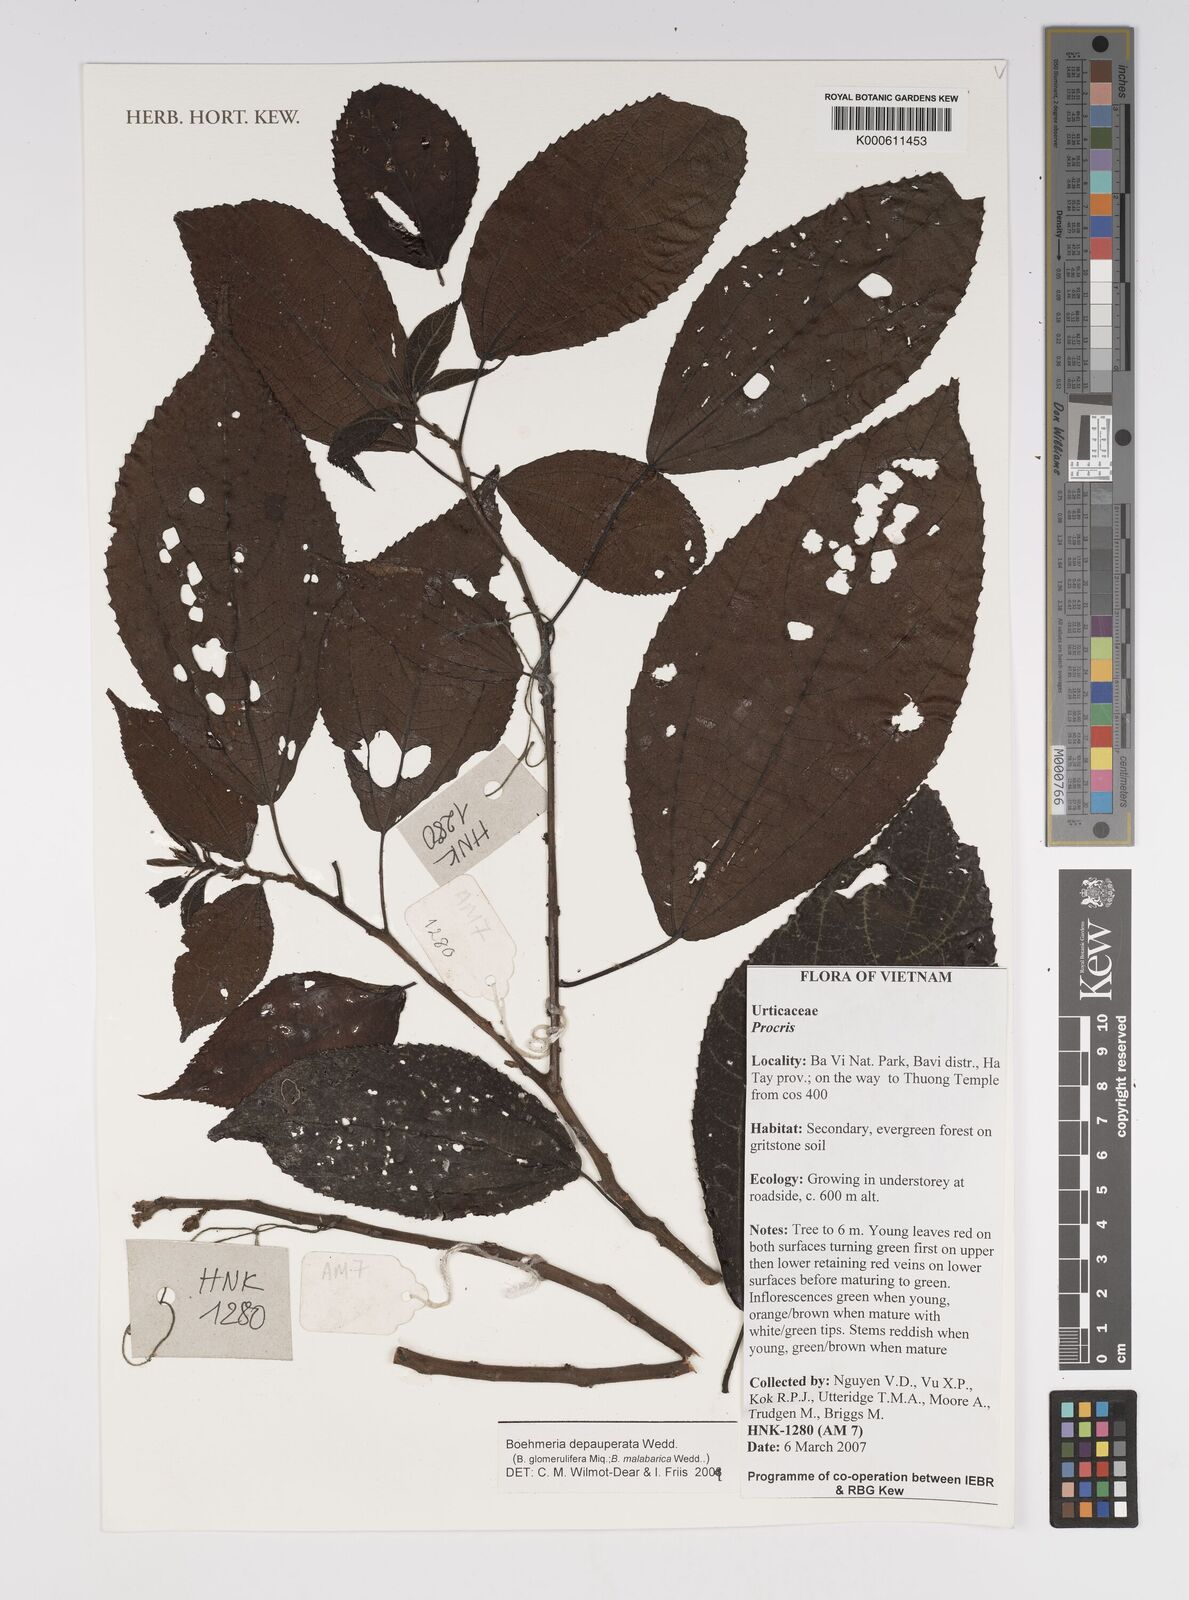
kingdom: Plantae
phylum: Tracheophyta
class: Magnoliopsida
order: Rosales
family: Urticaceae
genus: Boehmeria
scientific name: Boehmeria depauperata
